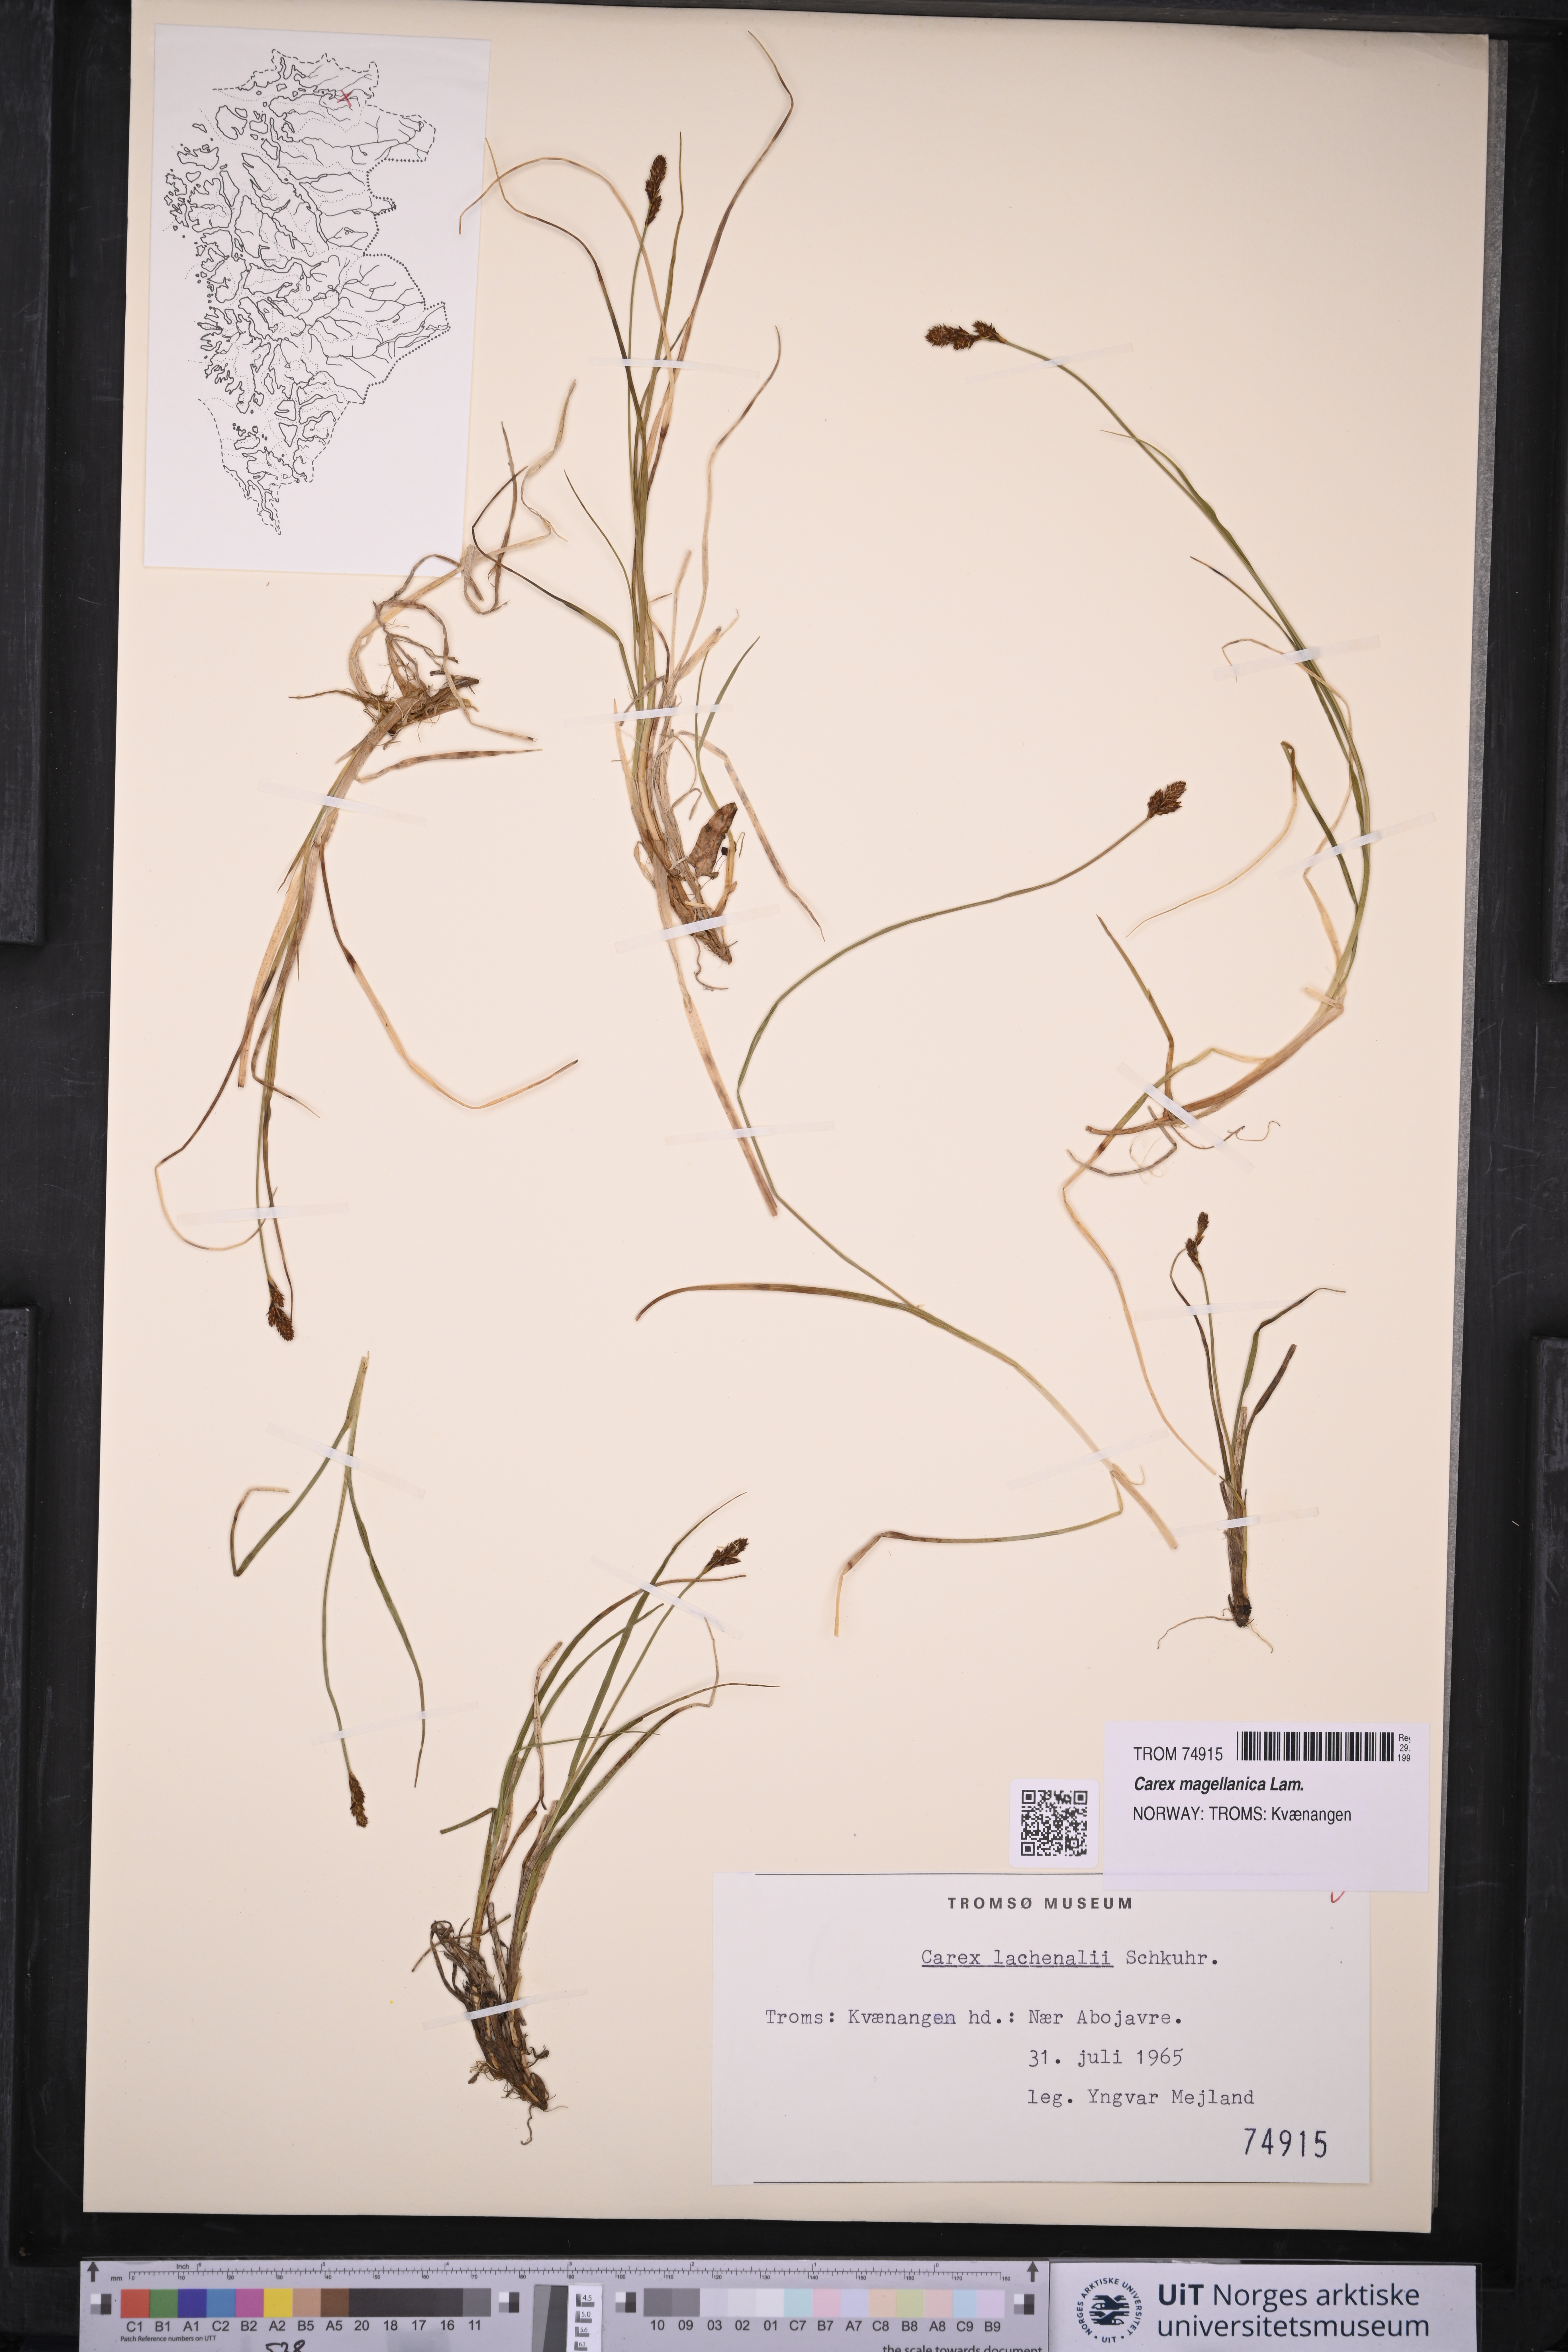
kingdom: Plantae
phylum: Tracheophyta
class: Liliopsida
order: Poales
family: Cyperaceae
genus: Carex
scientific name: Carex magellanica
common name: Bog sedge
